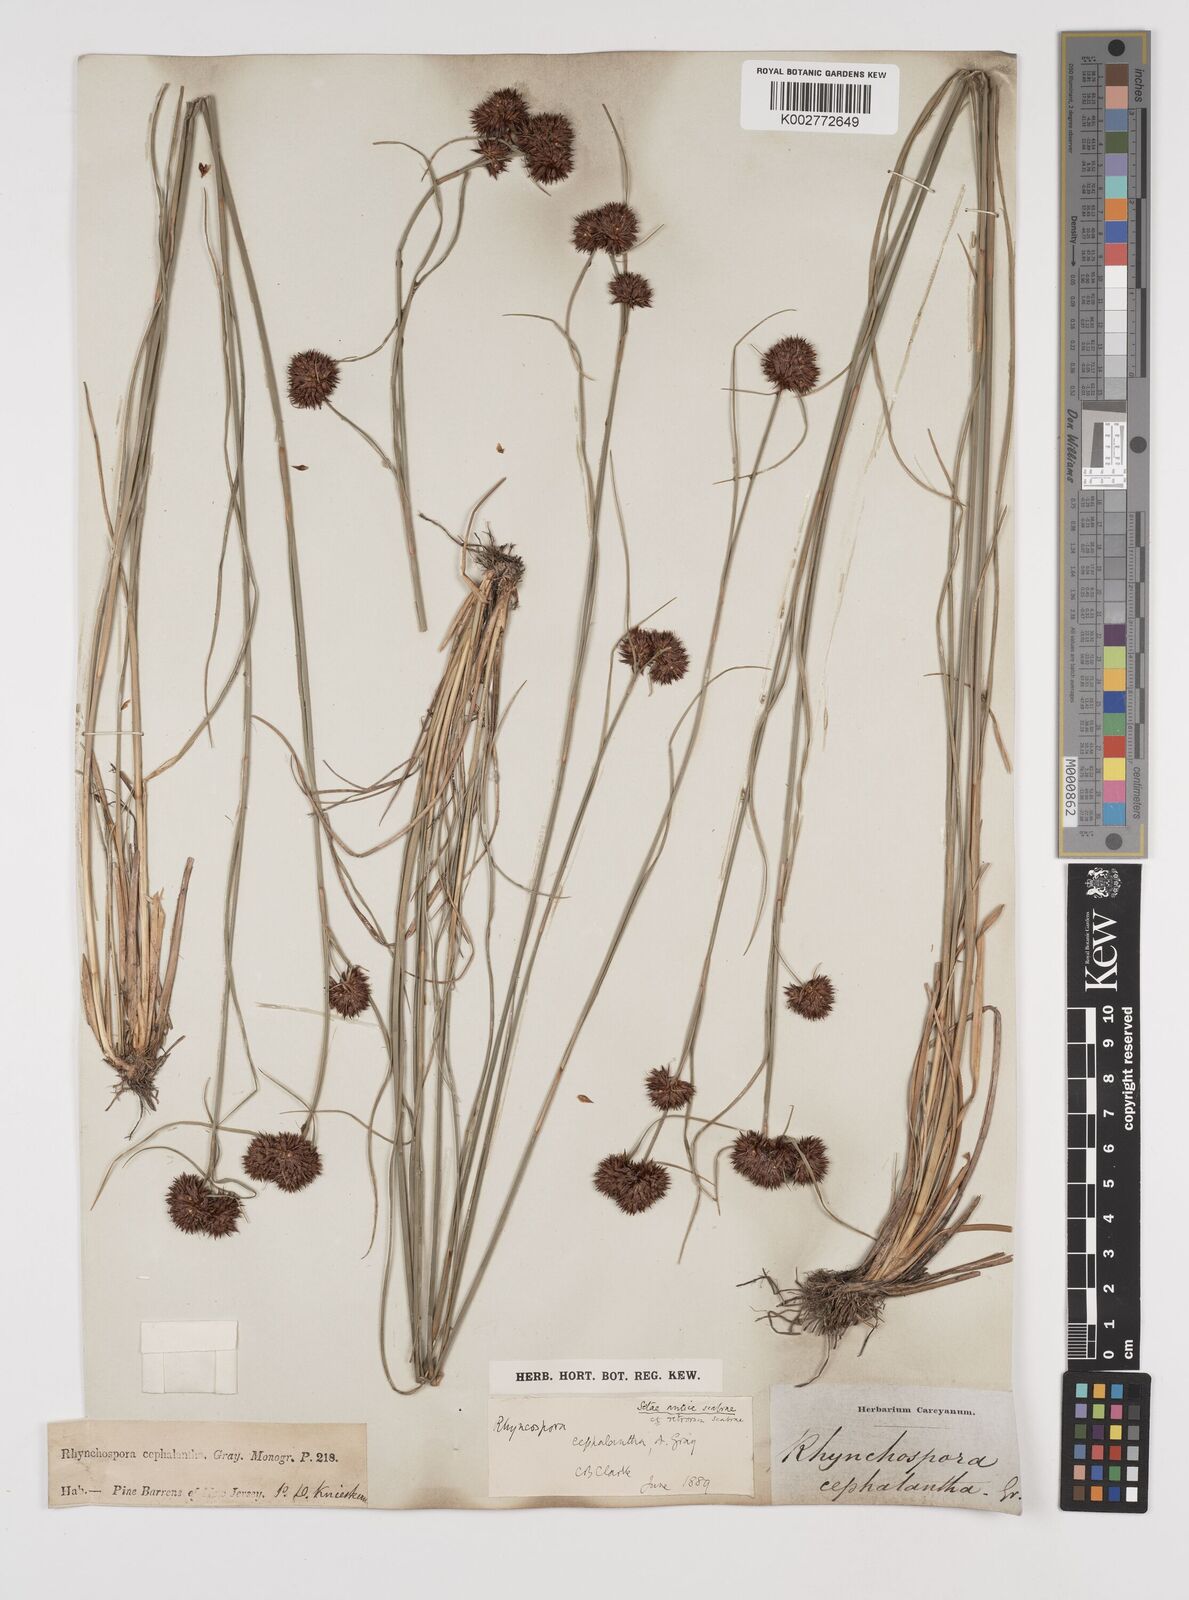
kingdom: Plantae
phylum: Tracheophyta
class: Liliopsida
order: Poales
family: Cyperaceae
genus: Rhynchospora
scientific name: Rhynchospora glomerata
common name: Cluster beak sedge
